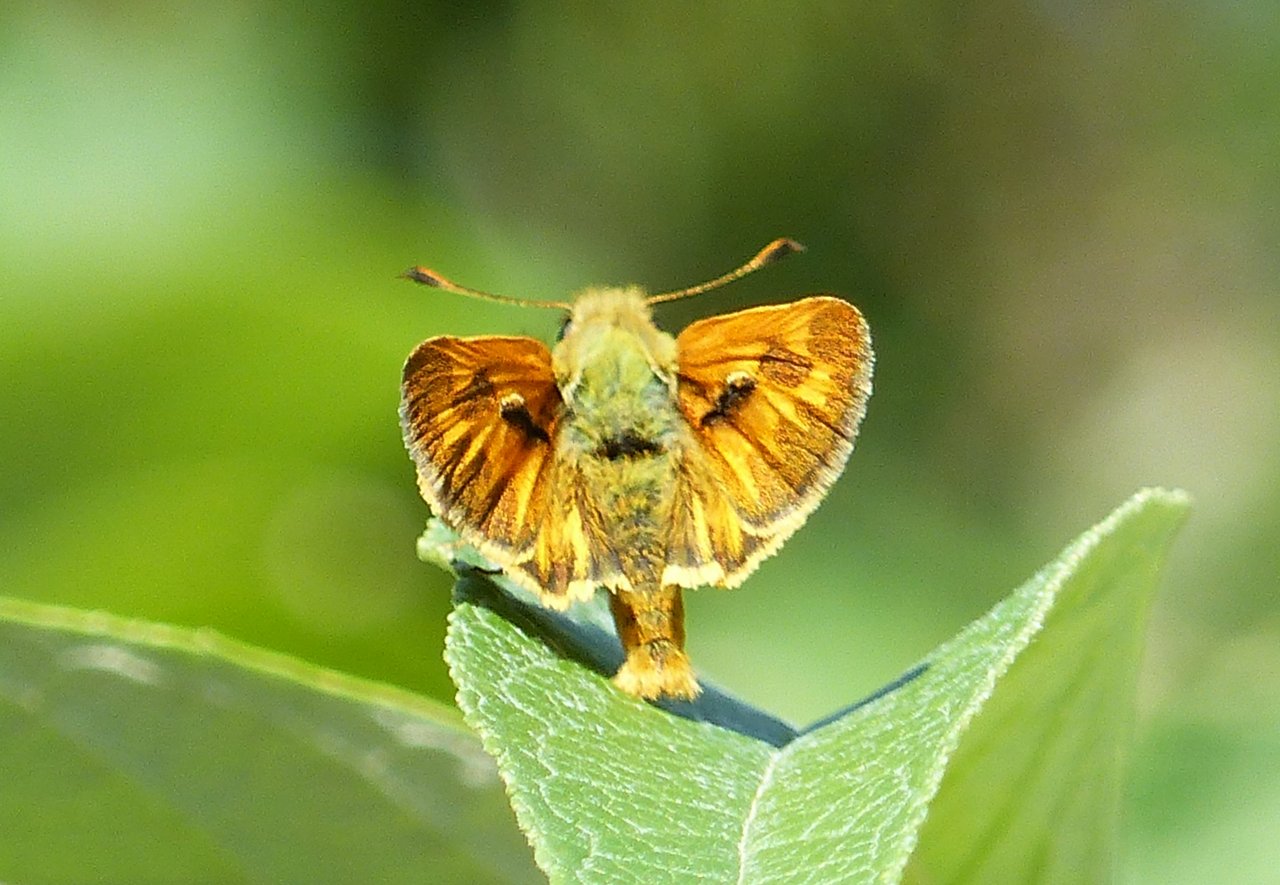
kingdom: Animalia
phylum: Arthropoda
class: Insecta
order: Lepidoptera
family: Hesperiidae
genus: Ochlodes
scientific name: Ochlodes sylvanoides
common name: Woodland Skipper
